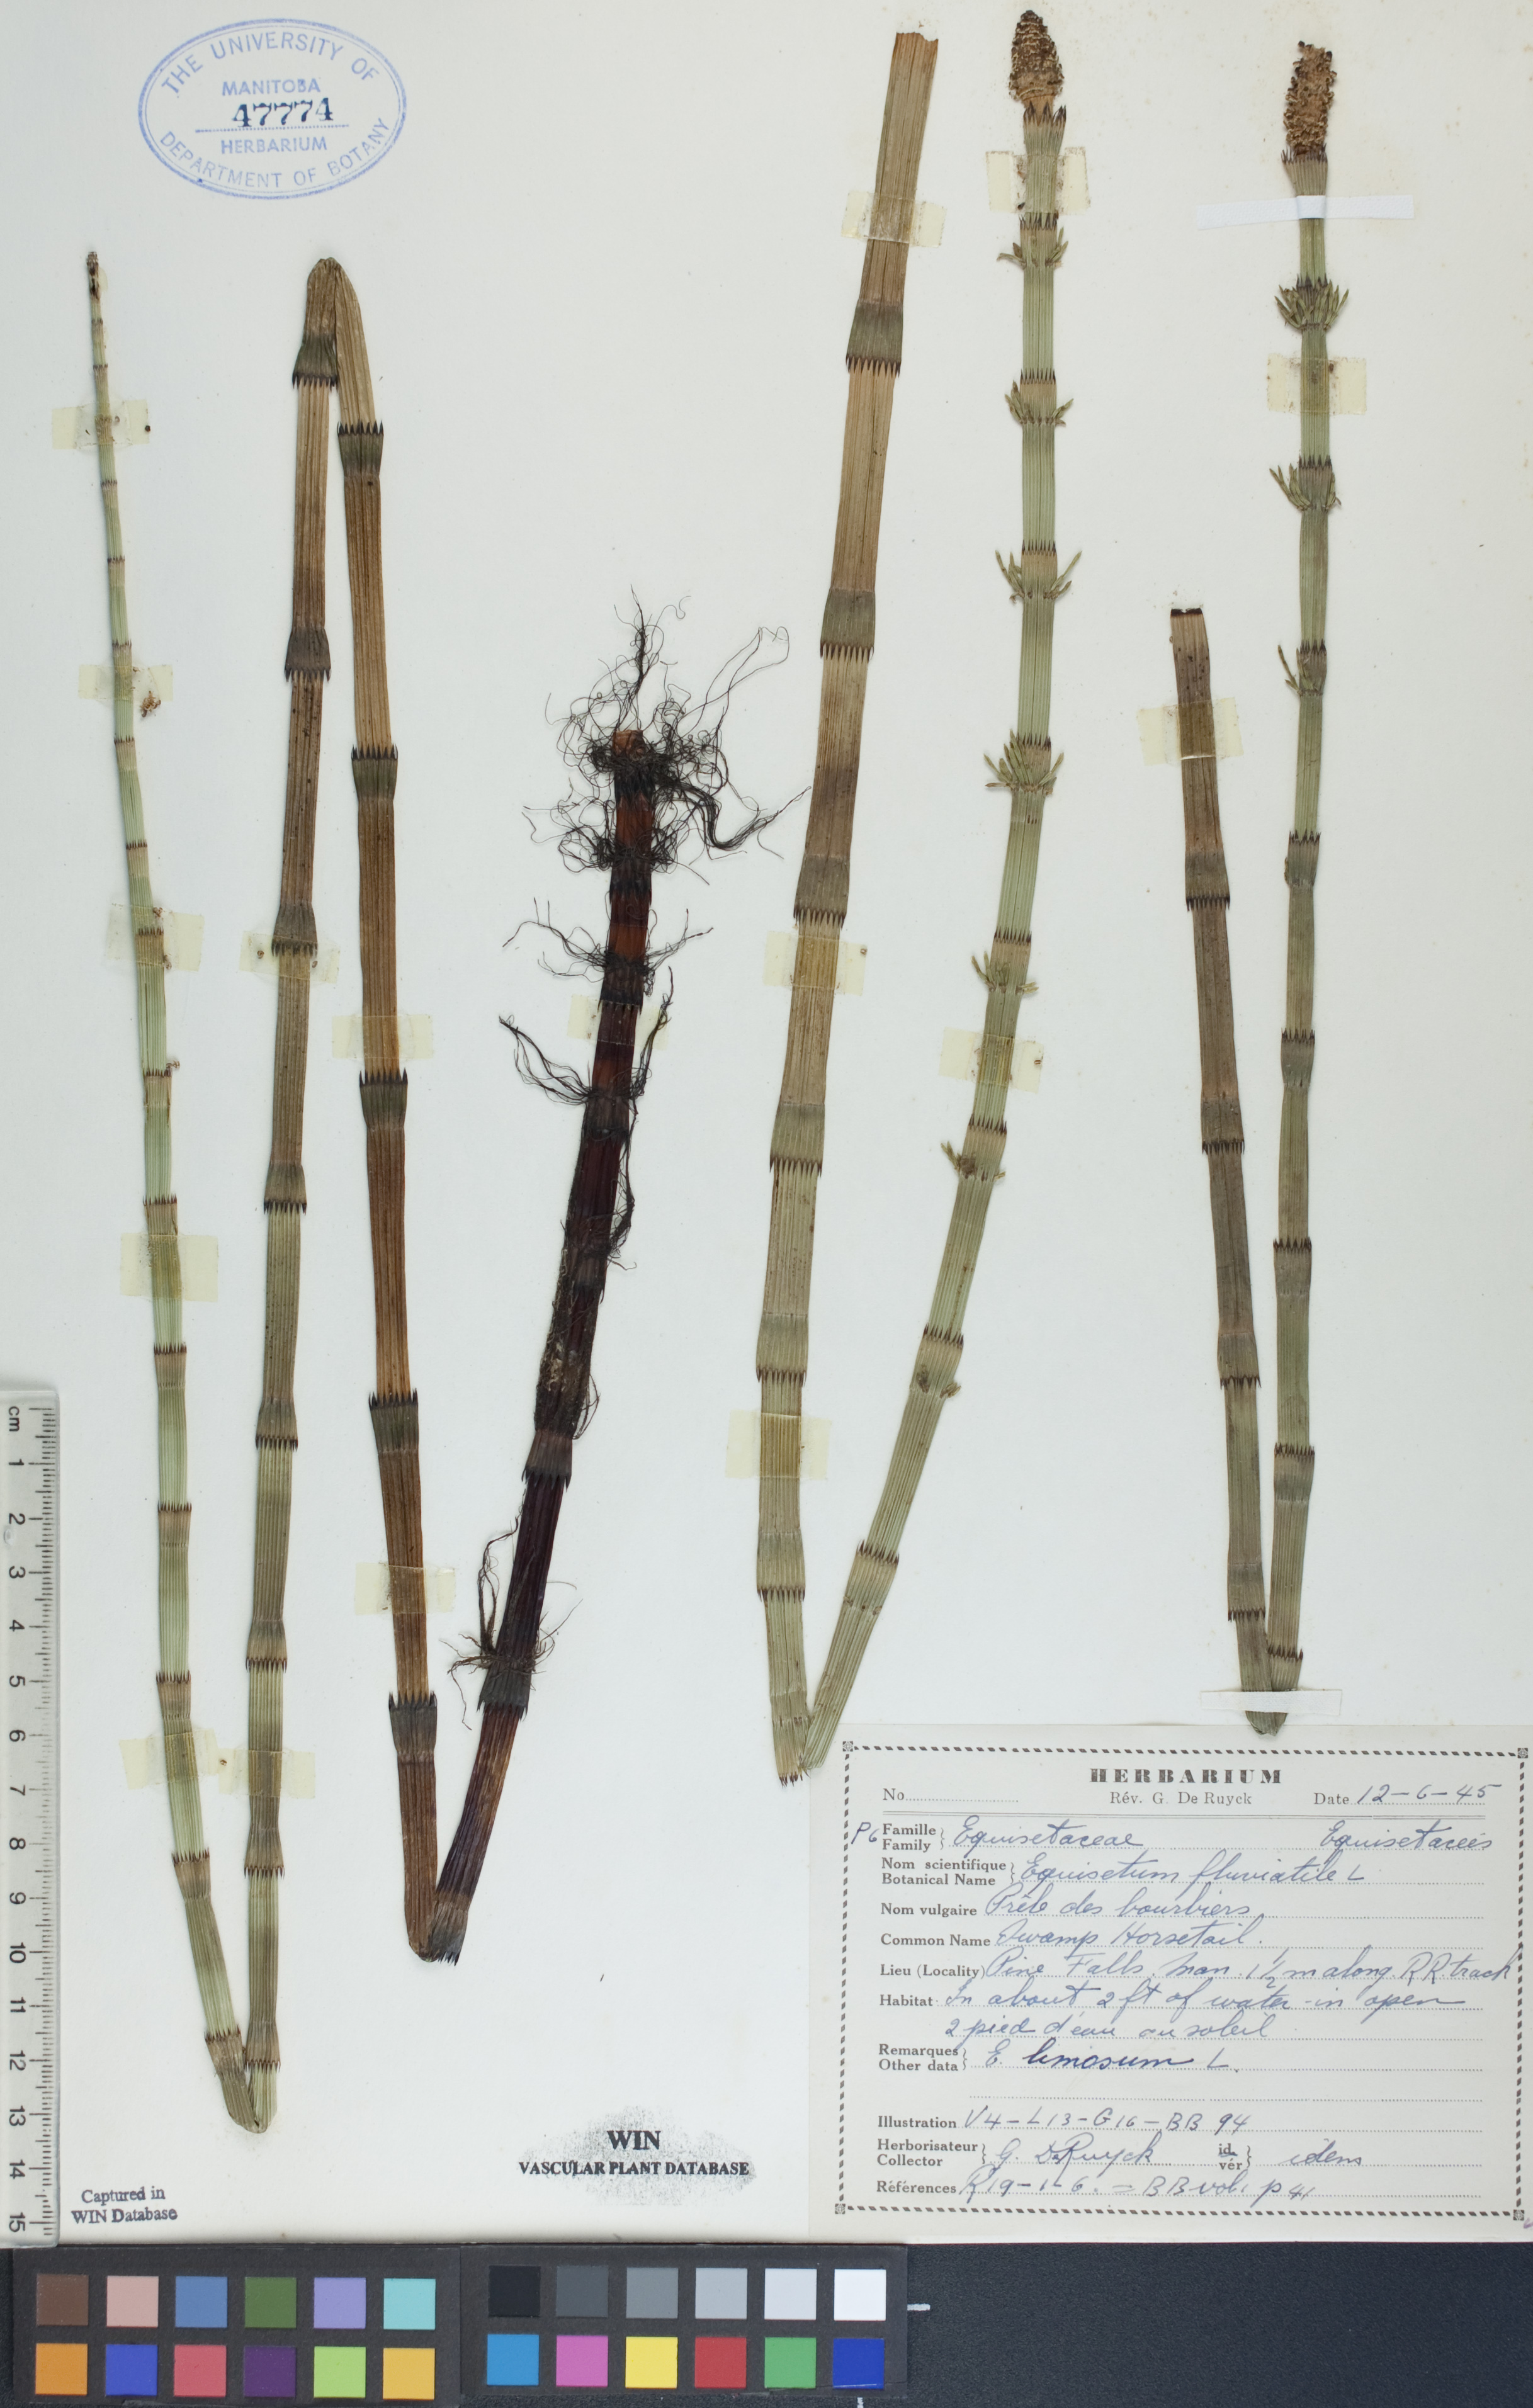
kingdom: Plantae
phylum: Tracheophyta
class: Polypodiopsida
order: Equisetales
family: Equisetaceae
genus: Equisetum
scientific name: Equisetum fluviatile
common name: Water horsetail
